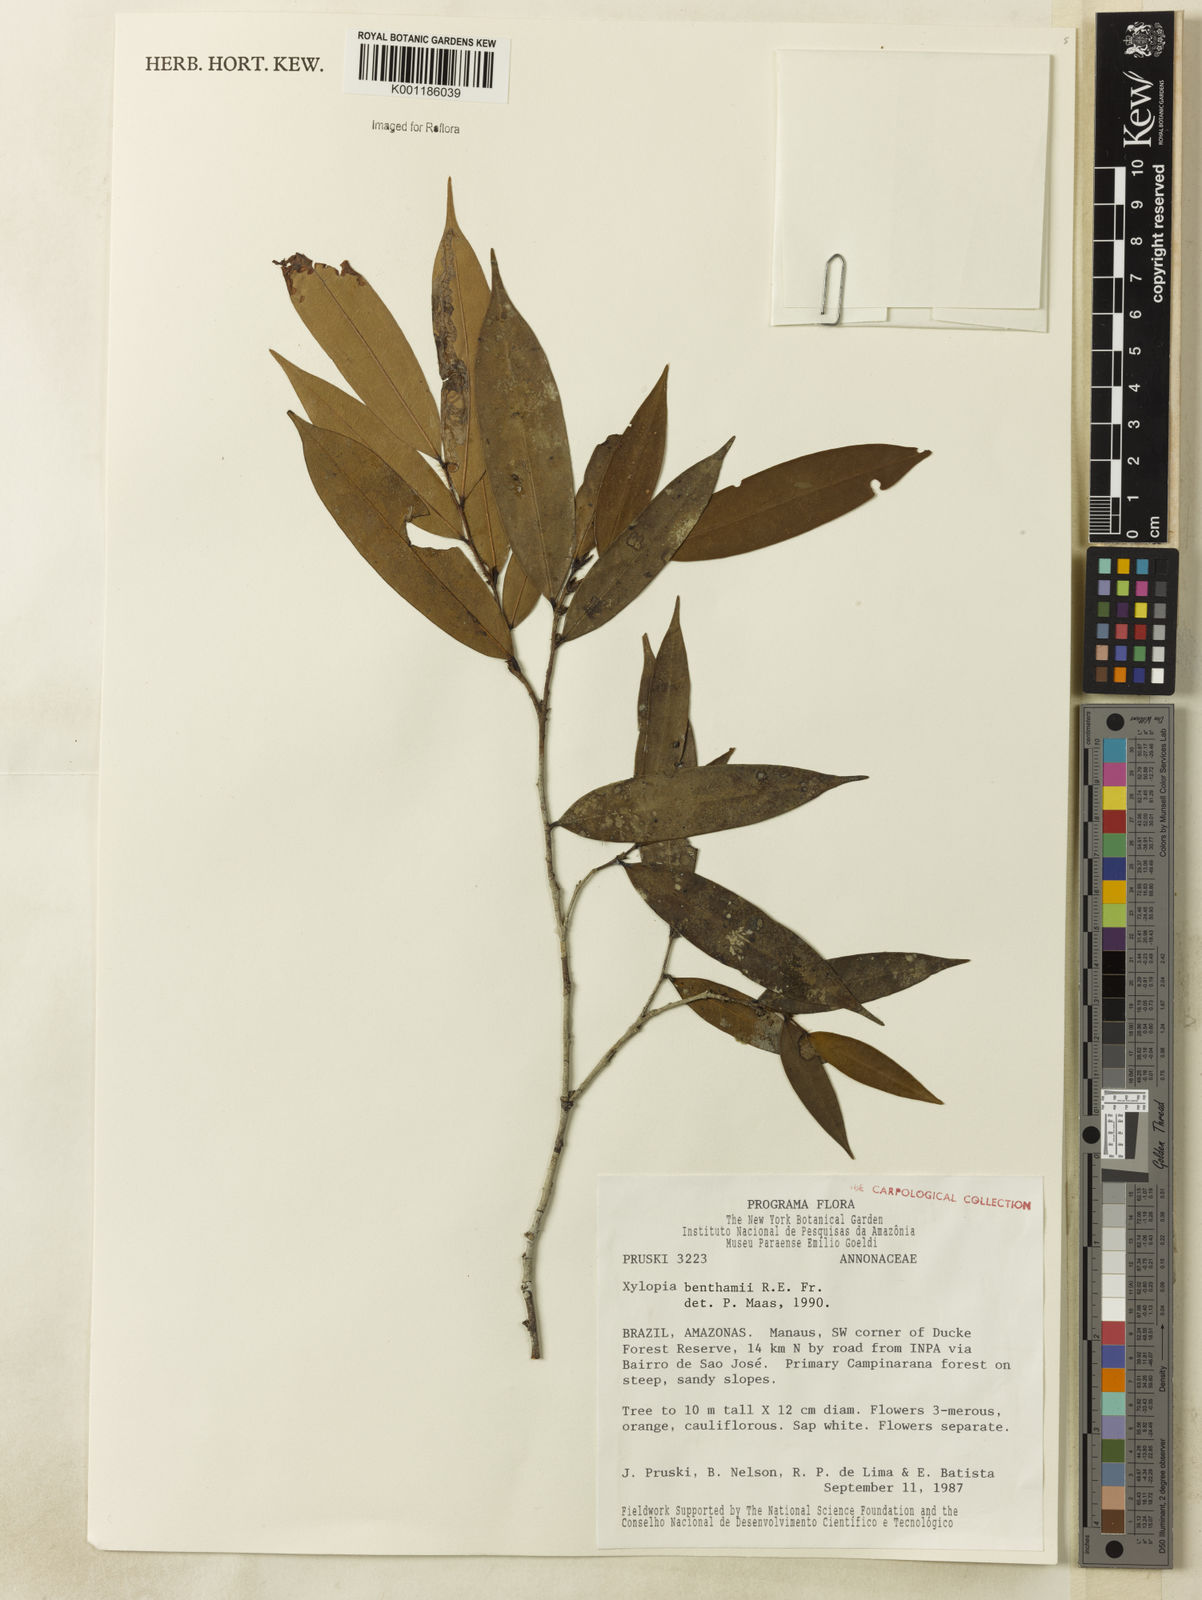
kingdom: Plantae
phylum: Tracheophyta
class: Magnoliopsida
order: Magnoliales
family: Annonaceae
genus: Xylopia
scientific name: Xylopia benthamii
